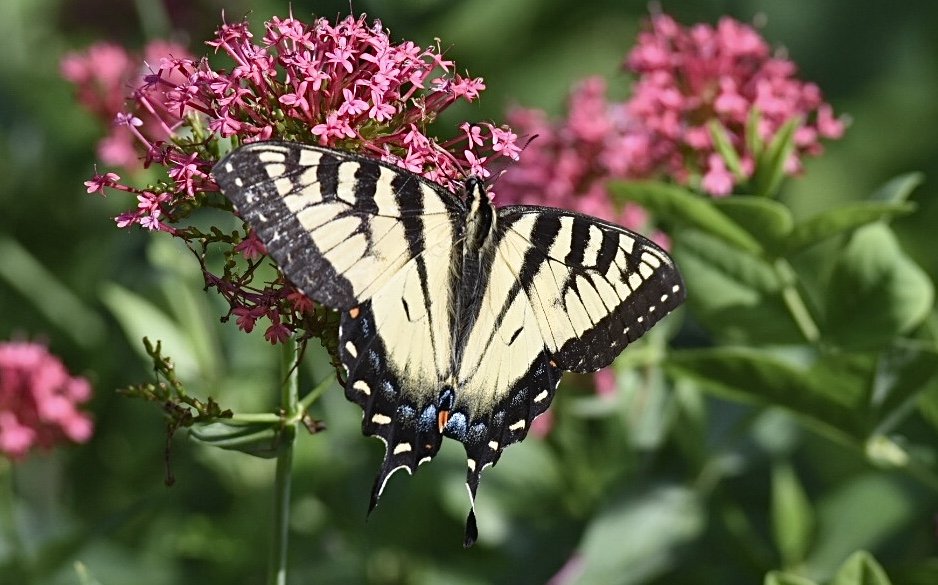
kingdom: Animalia
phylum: Arthropoda
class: Insecta
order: Lepidoptera
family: Papilionidae
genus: Pterourus
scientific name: Pterourus
